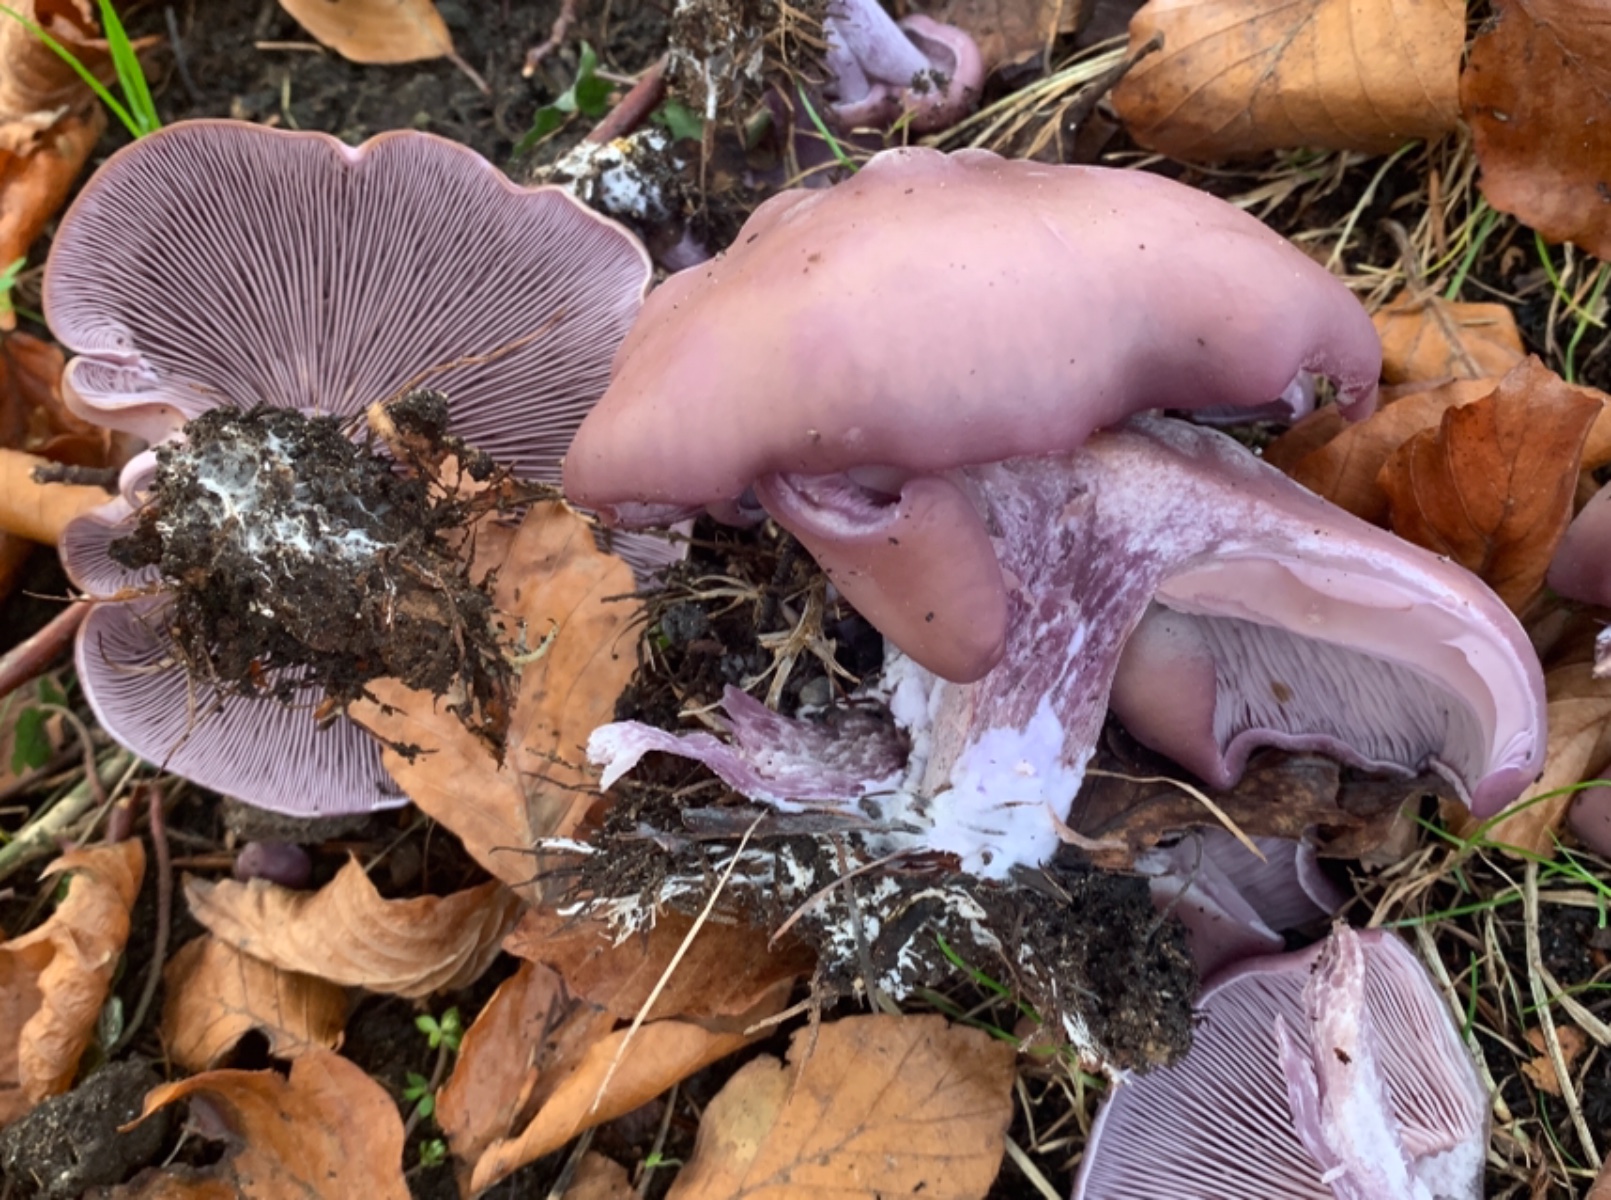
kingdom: Fungi
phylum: Basidiomycota
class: Agaricomycetes
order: Agaricales
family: Tricholomataceae
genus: Lepista
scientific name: Lepista nuda
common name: violet hekseringshat
